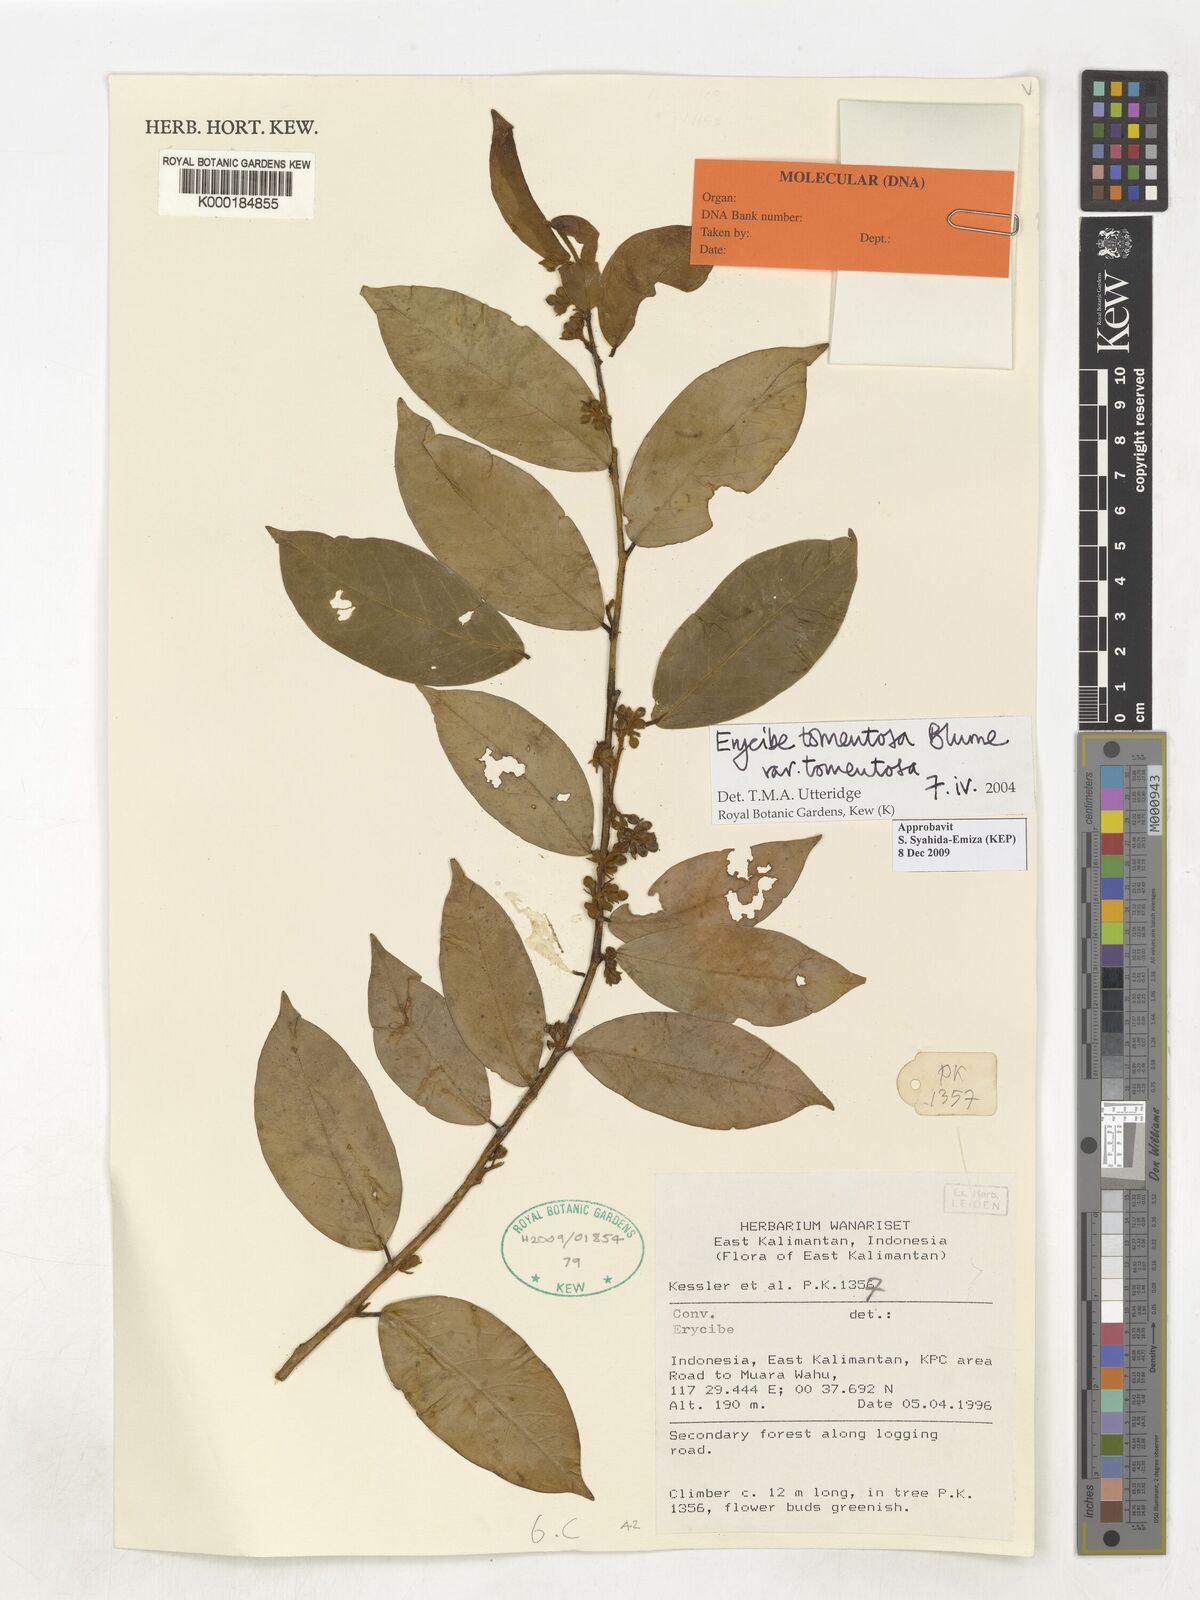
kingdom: Plantae
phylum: Tracheophyta
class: Magnoliopsida
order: Solanales
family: Convolvulaceae
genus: Erycibe
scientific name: Erycibe tomentosa
